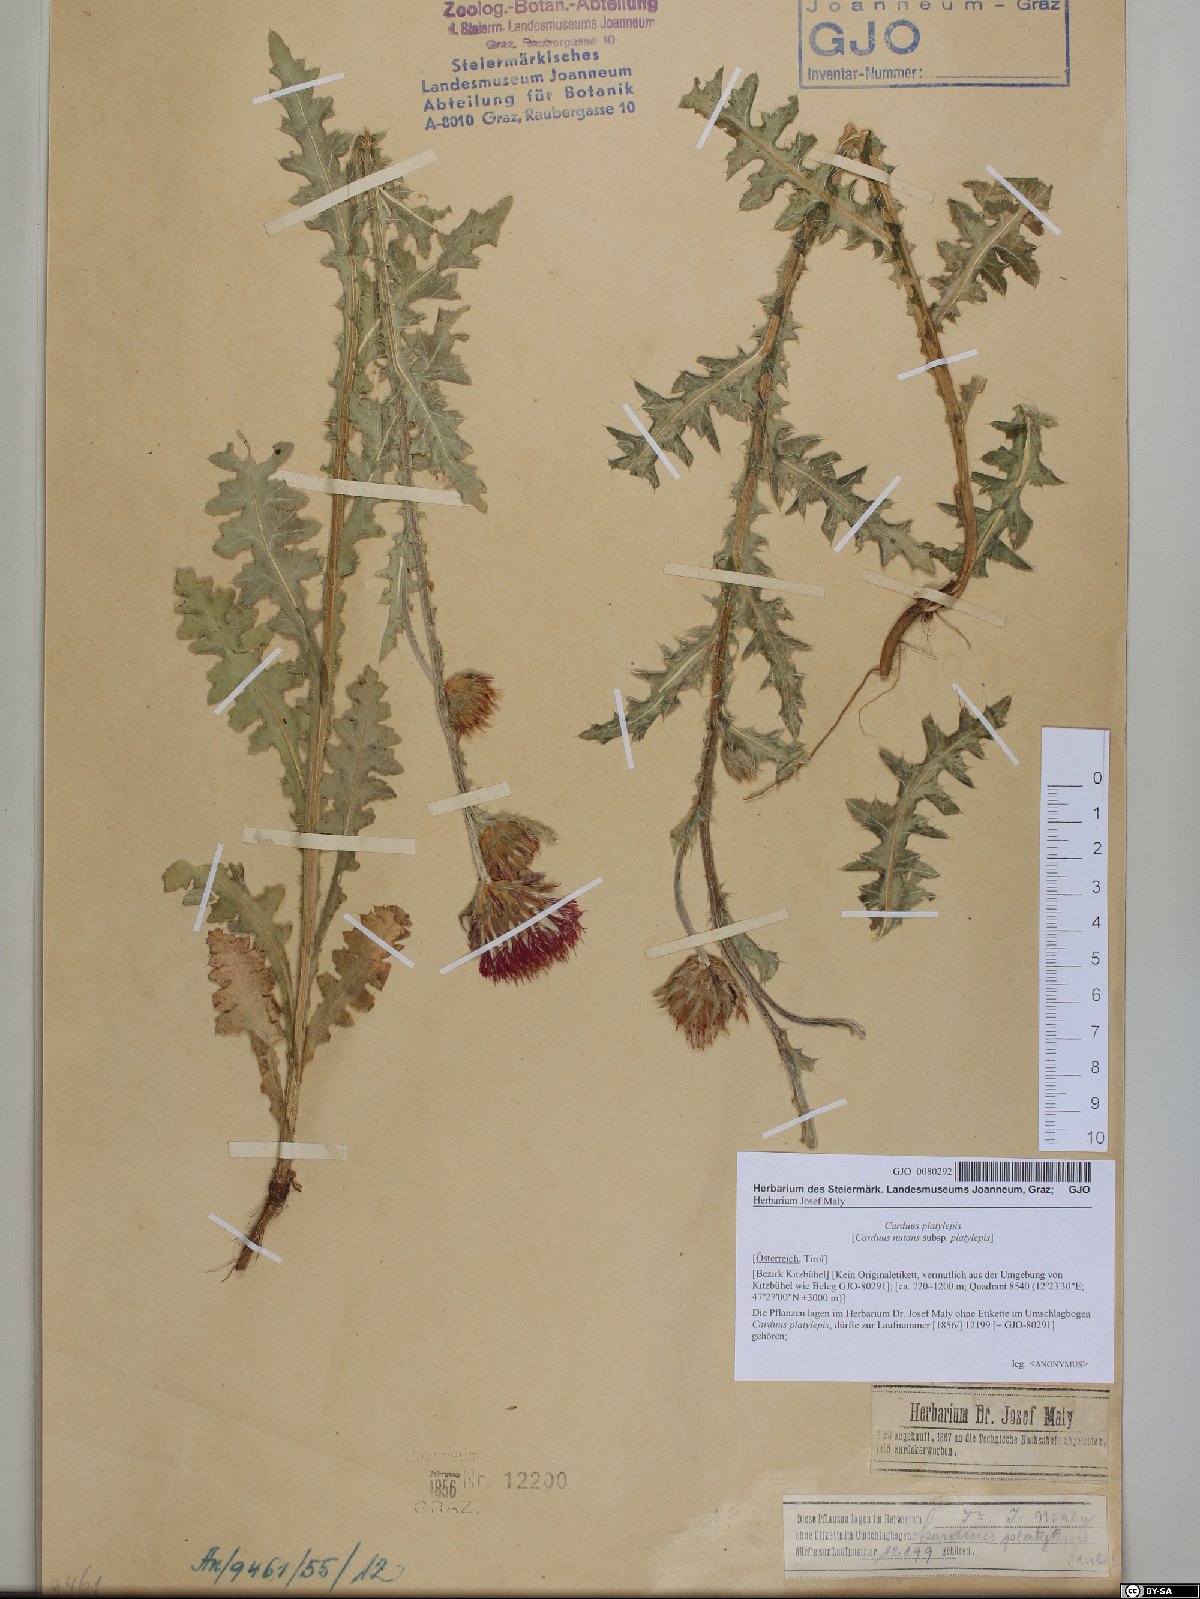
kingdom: Plantae
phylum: Tracheophyta
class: Magnoliopsida
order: Asterales
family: Asteraceae
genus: Carduus
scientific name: Carduus nutans
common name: Musk thistle
